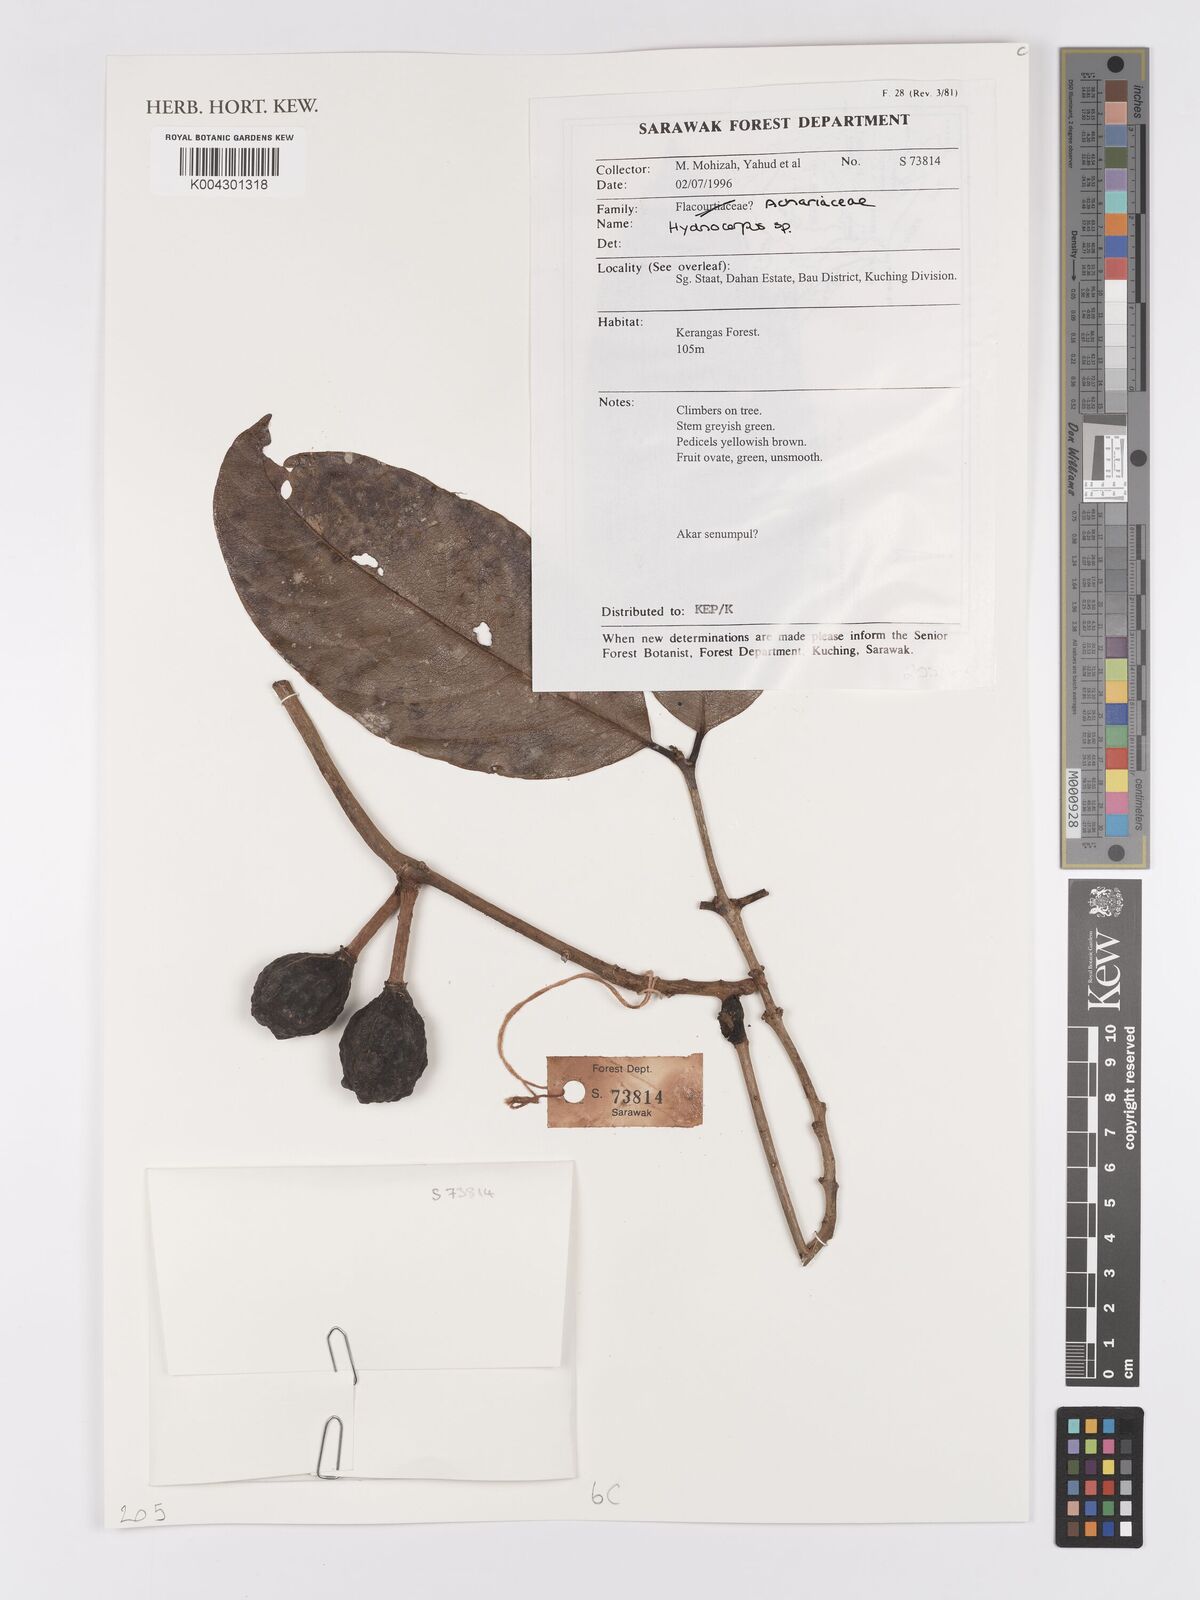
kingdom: Plantae
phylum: Tracheophyta
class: Magnoliopsida
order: Malpighiales
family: Achariaceae
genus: Hydnocarpus
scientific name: Hydnocarpus
